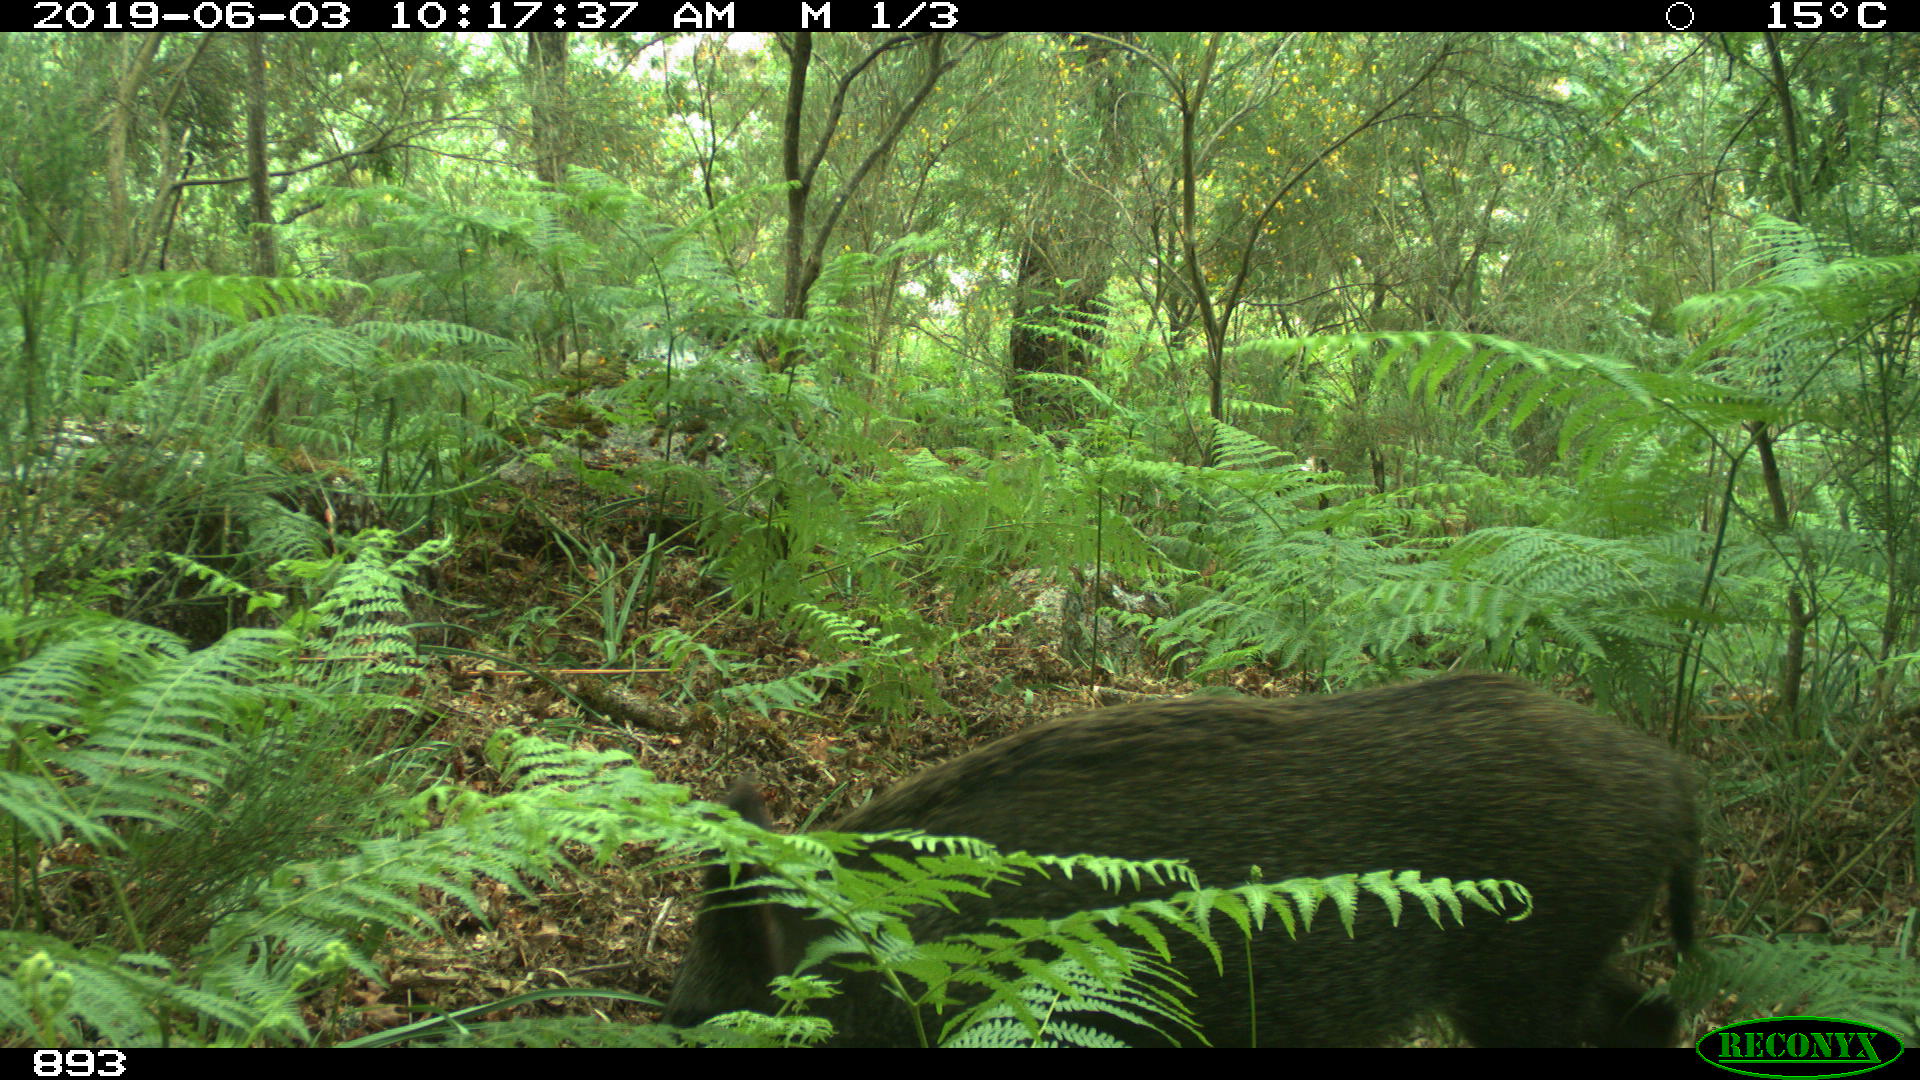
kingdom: Animalia
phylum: Chordata
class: Mammalia
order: Artiodactyla
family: Suidae
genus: Sus
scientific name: Sus scrofa
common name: Wild boar
